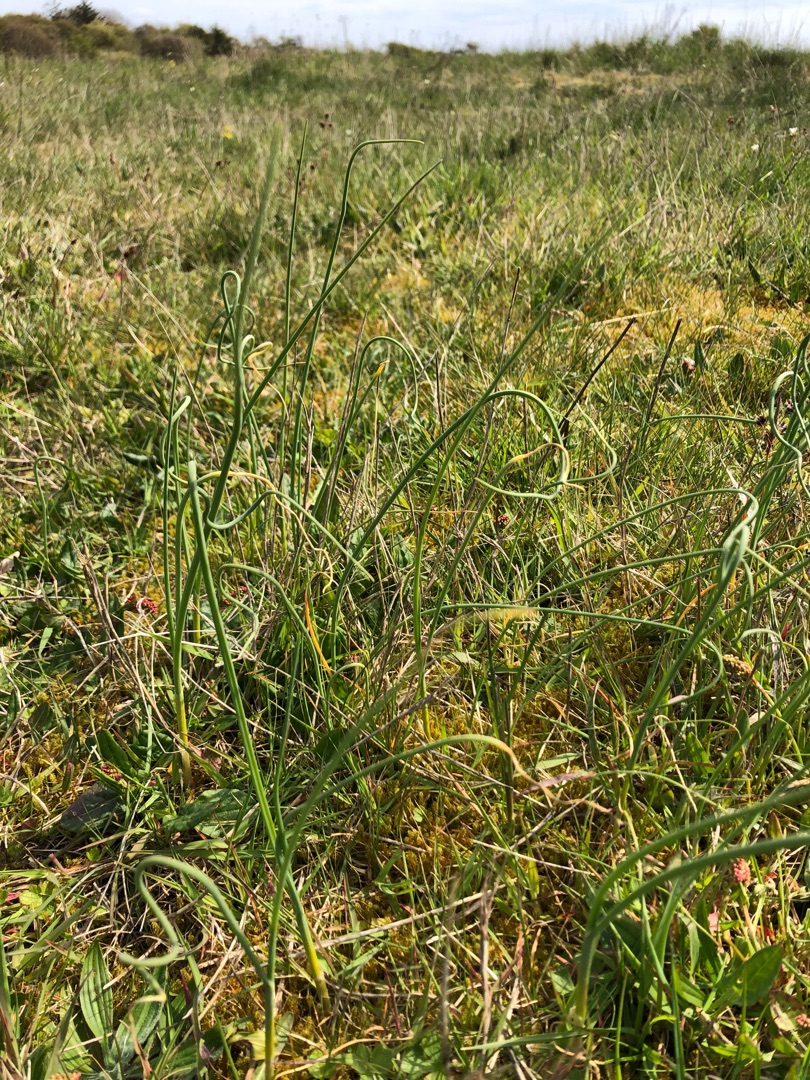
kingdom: Plantae
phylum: Tracheophyta
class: Liliopsida
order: Asparagales
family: Amaryllidaceae
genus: Allium
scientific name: Allium vineale
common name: Sand-løg
